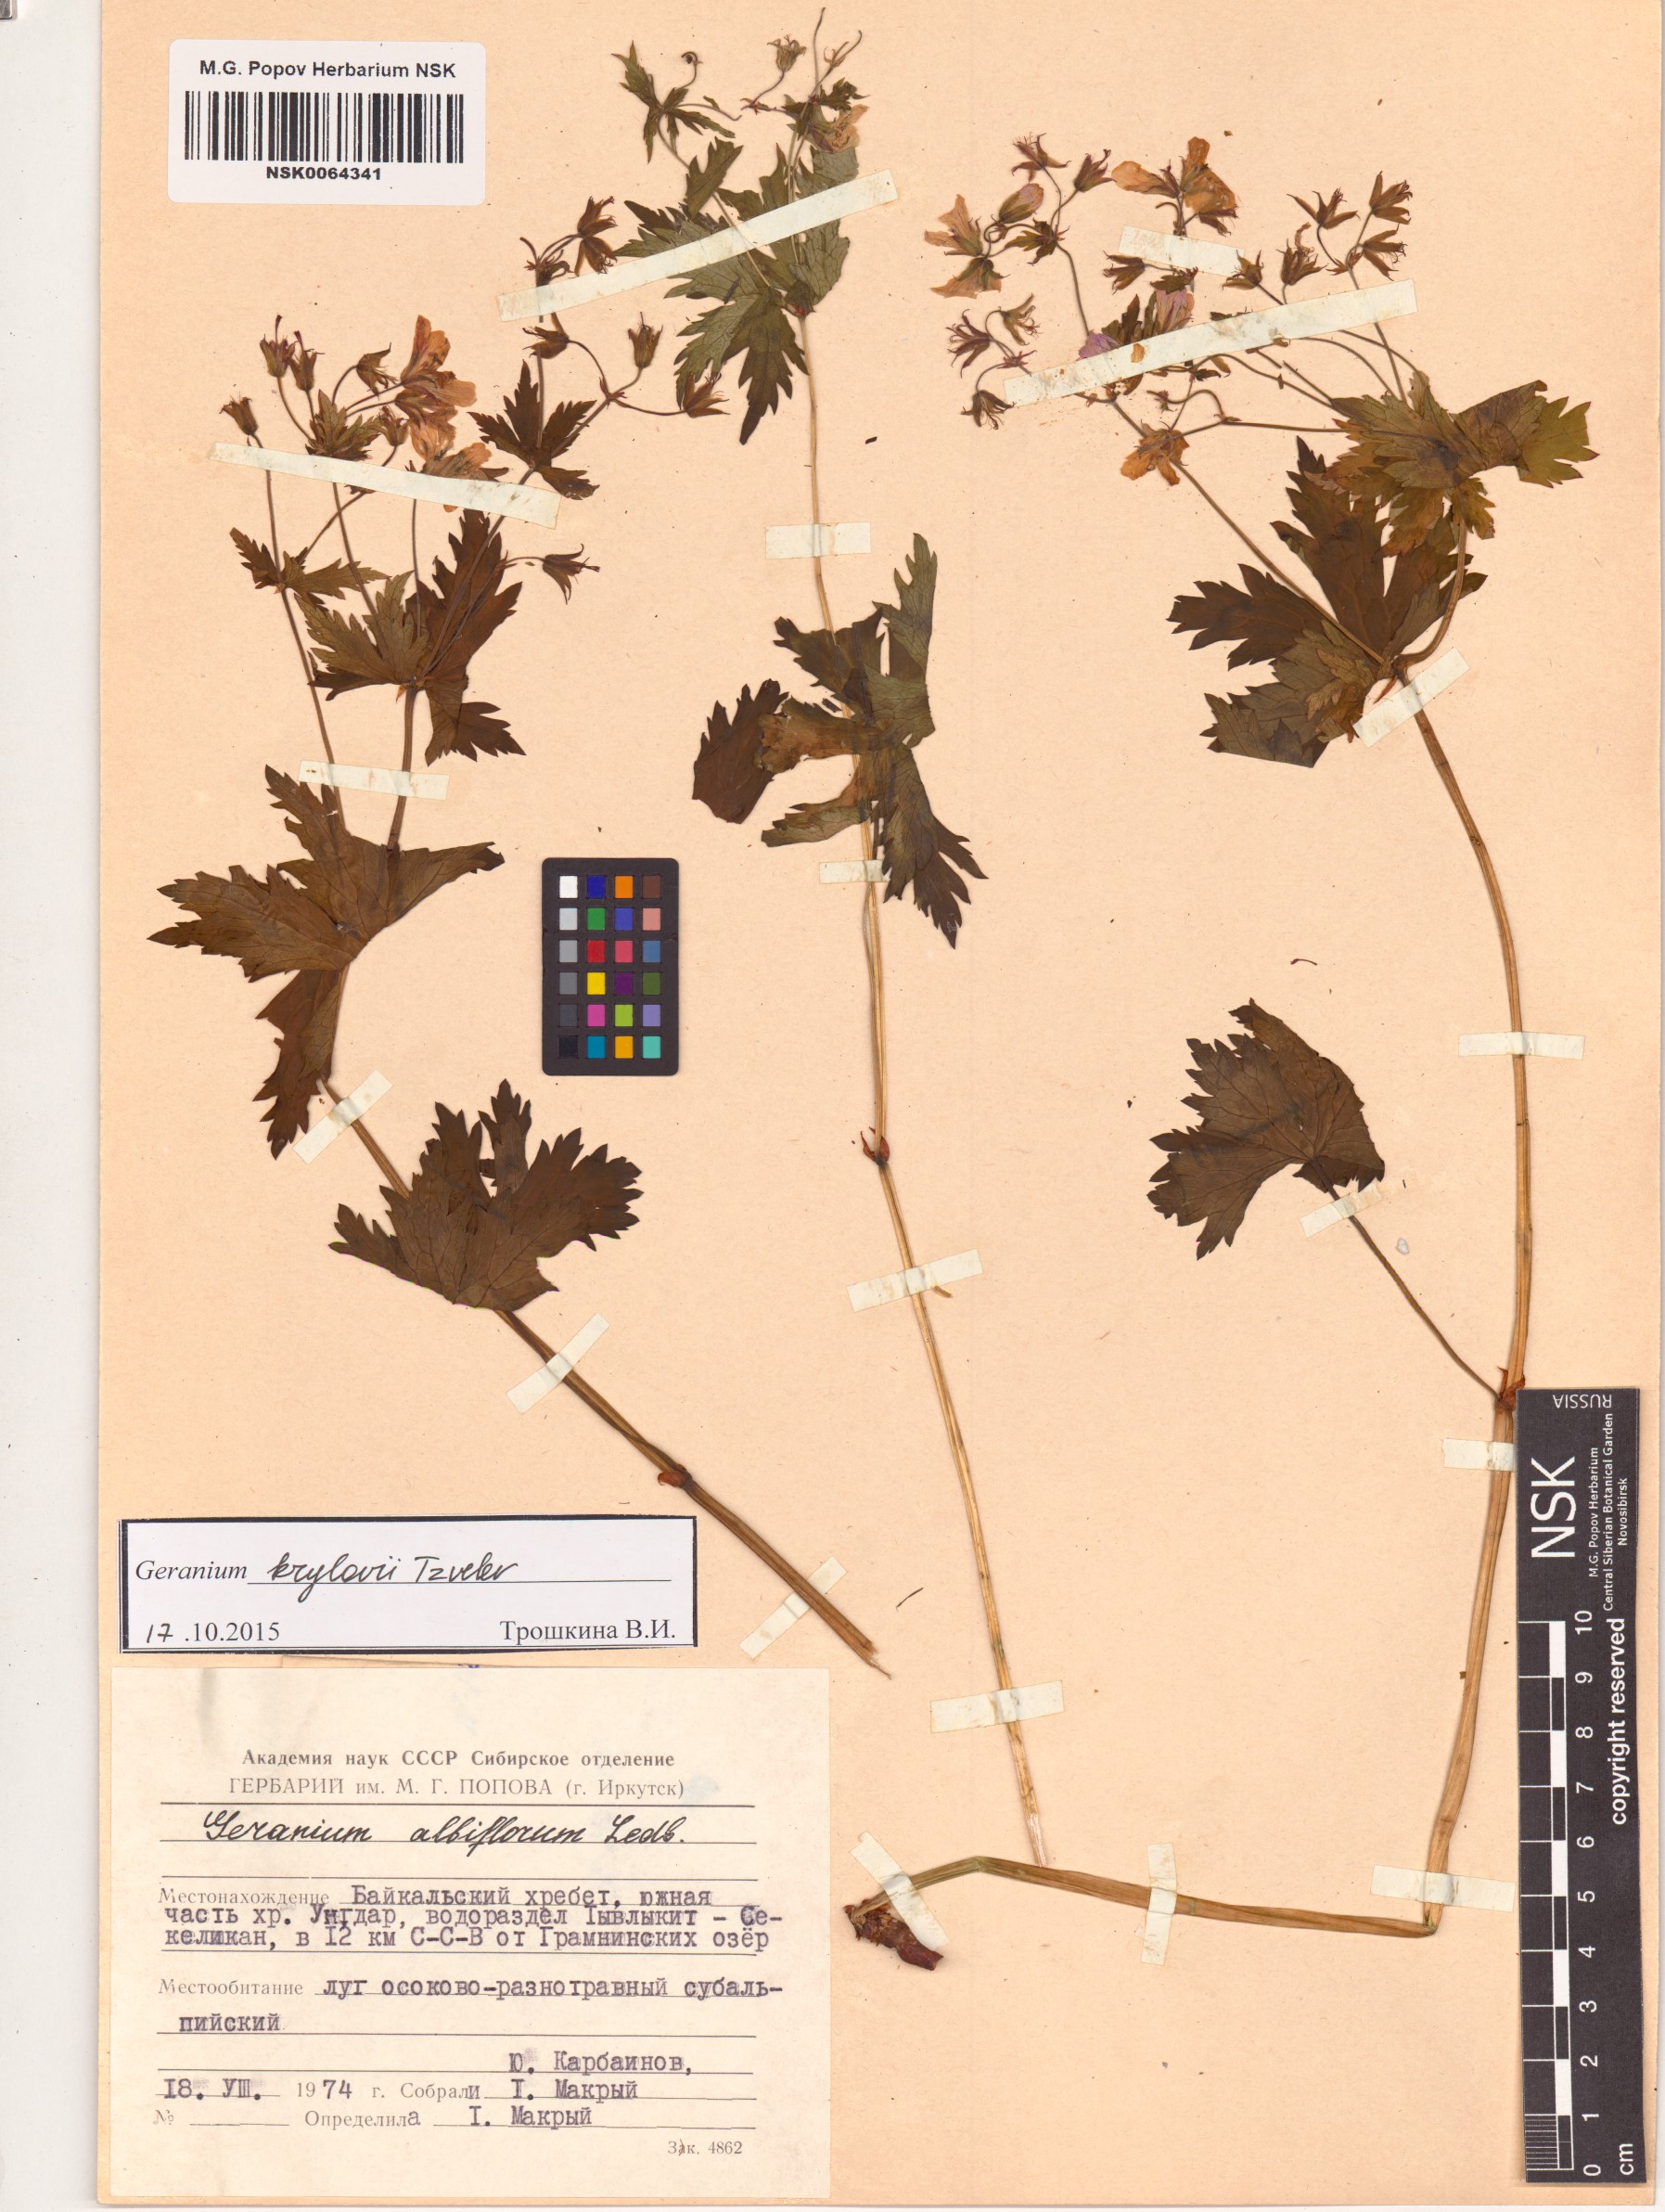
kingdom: Plantae
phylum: Tracheophyta
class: Magnoliopsida
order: Geraniales
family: Geraniaceae
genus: Geranium
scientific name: Geranium sylvaticum
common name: Wood crane's-bill
